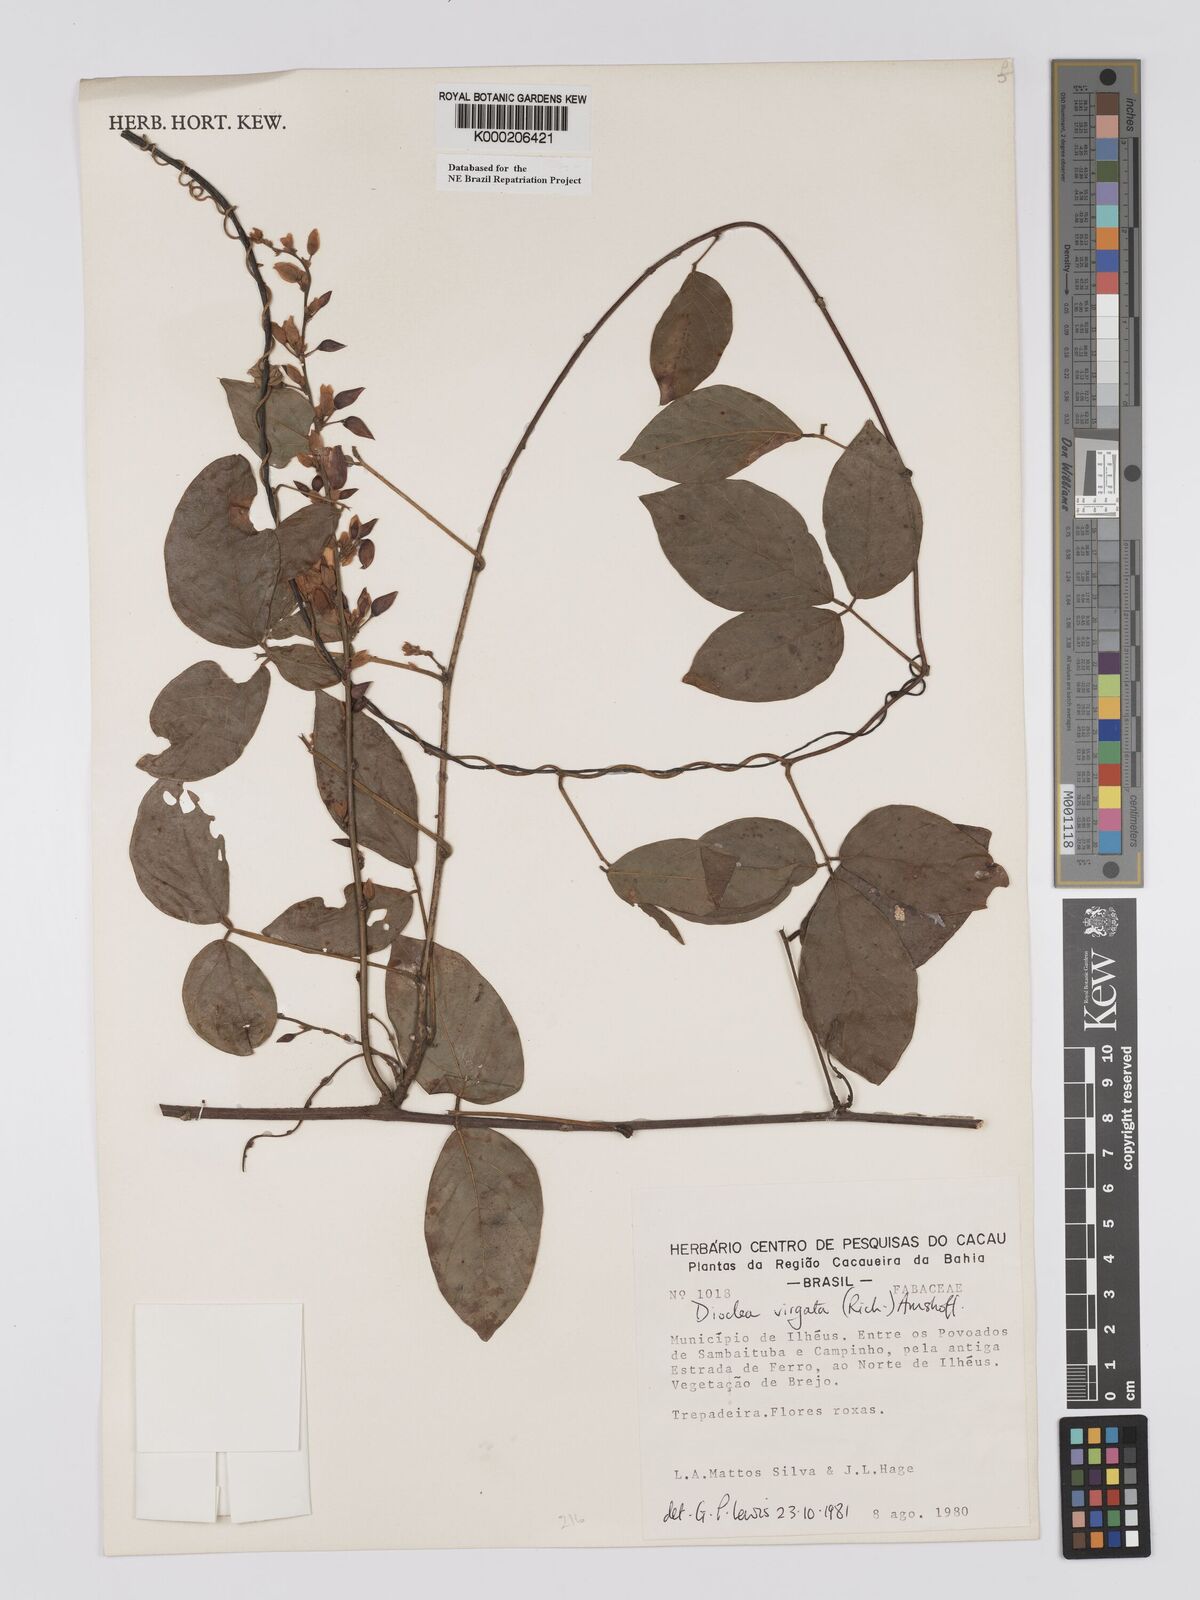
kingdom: Plantae
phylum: Tracheophyta
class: Magnoliopsida
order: Fabales
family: Fabaceae
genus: Dioclea
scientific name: Dioclea virgata
